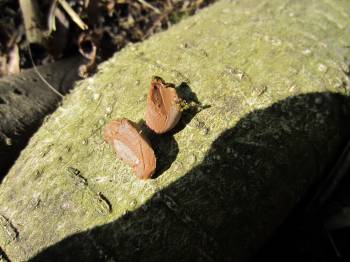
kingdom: Protozoa
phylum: Mycetozoa
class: Myxomycetes
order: Cribrariales
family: Tubiferaceae
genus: Lycogala
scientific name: Lycogala epidendrum
